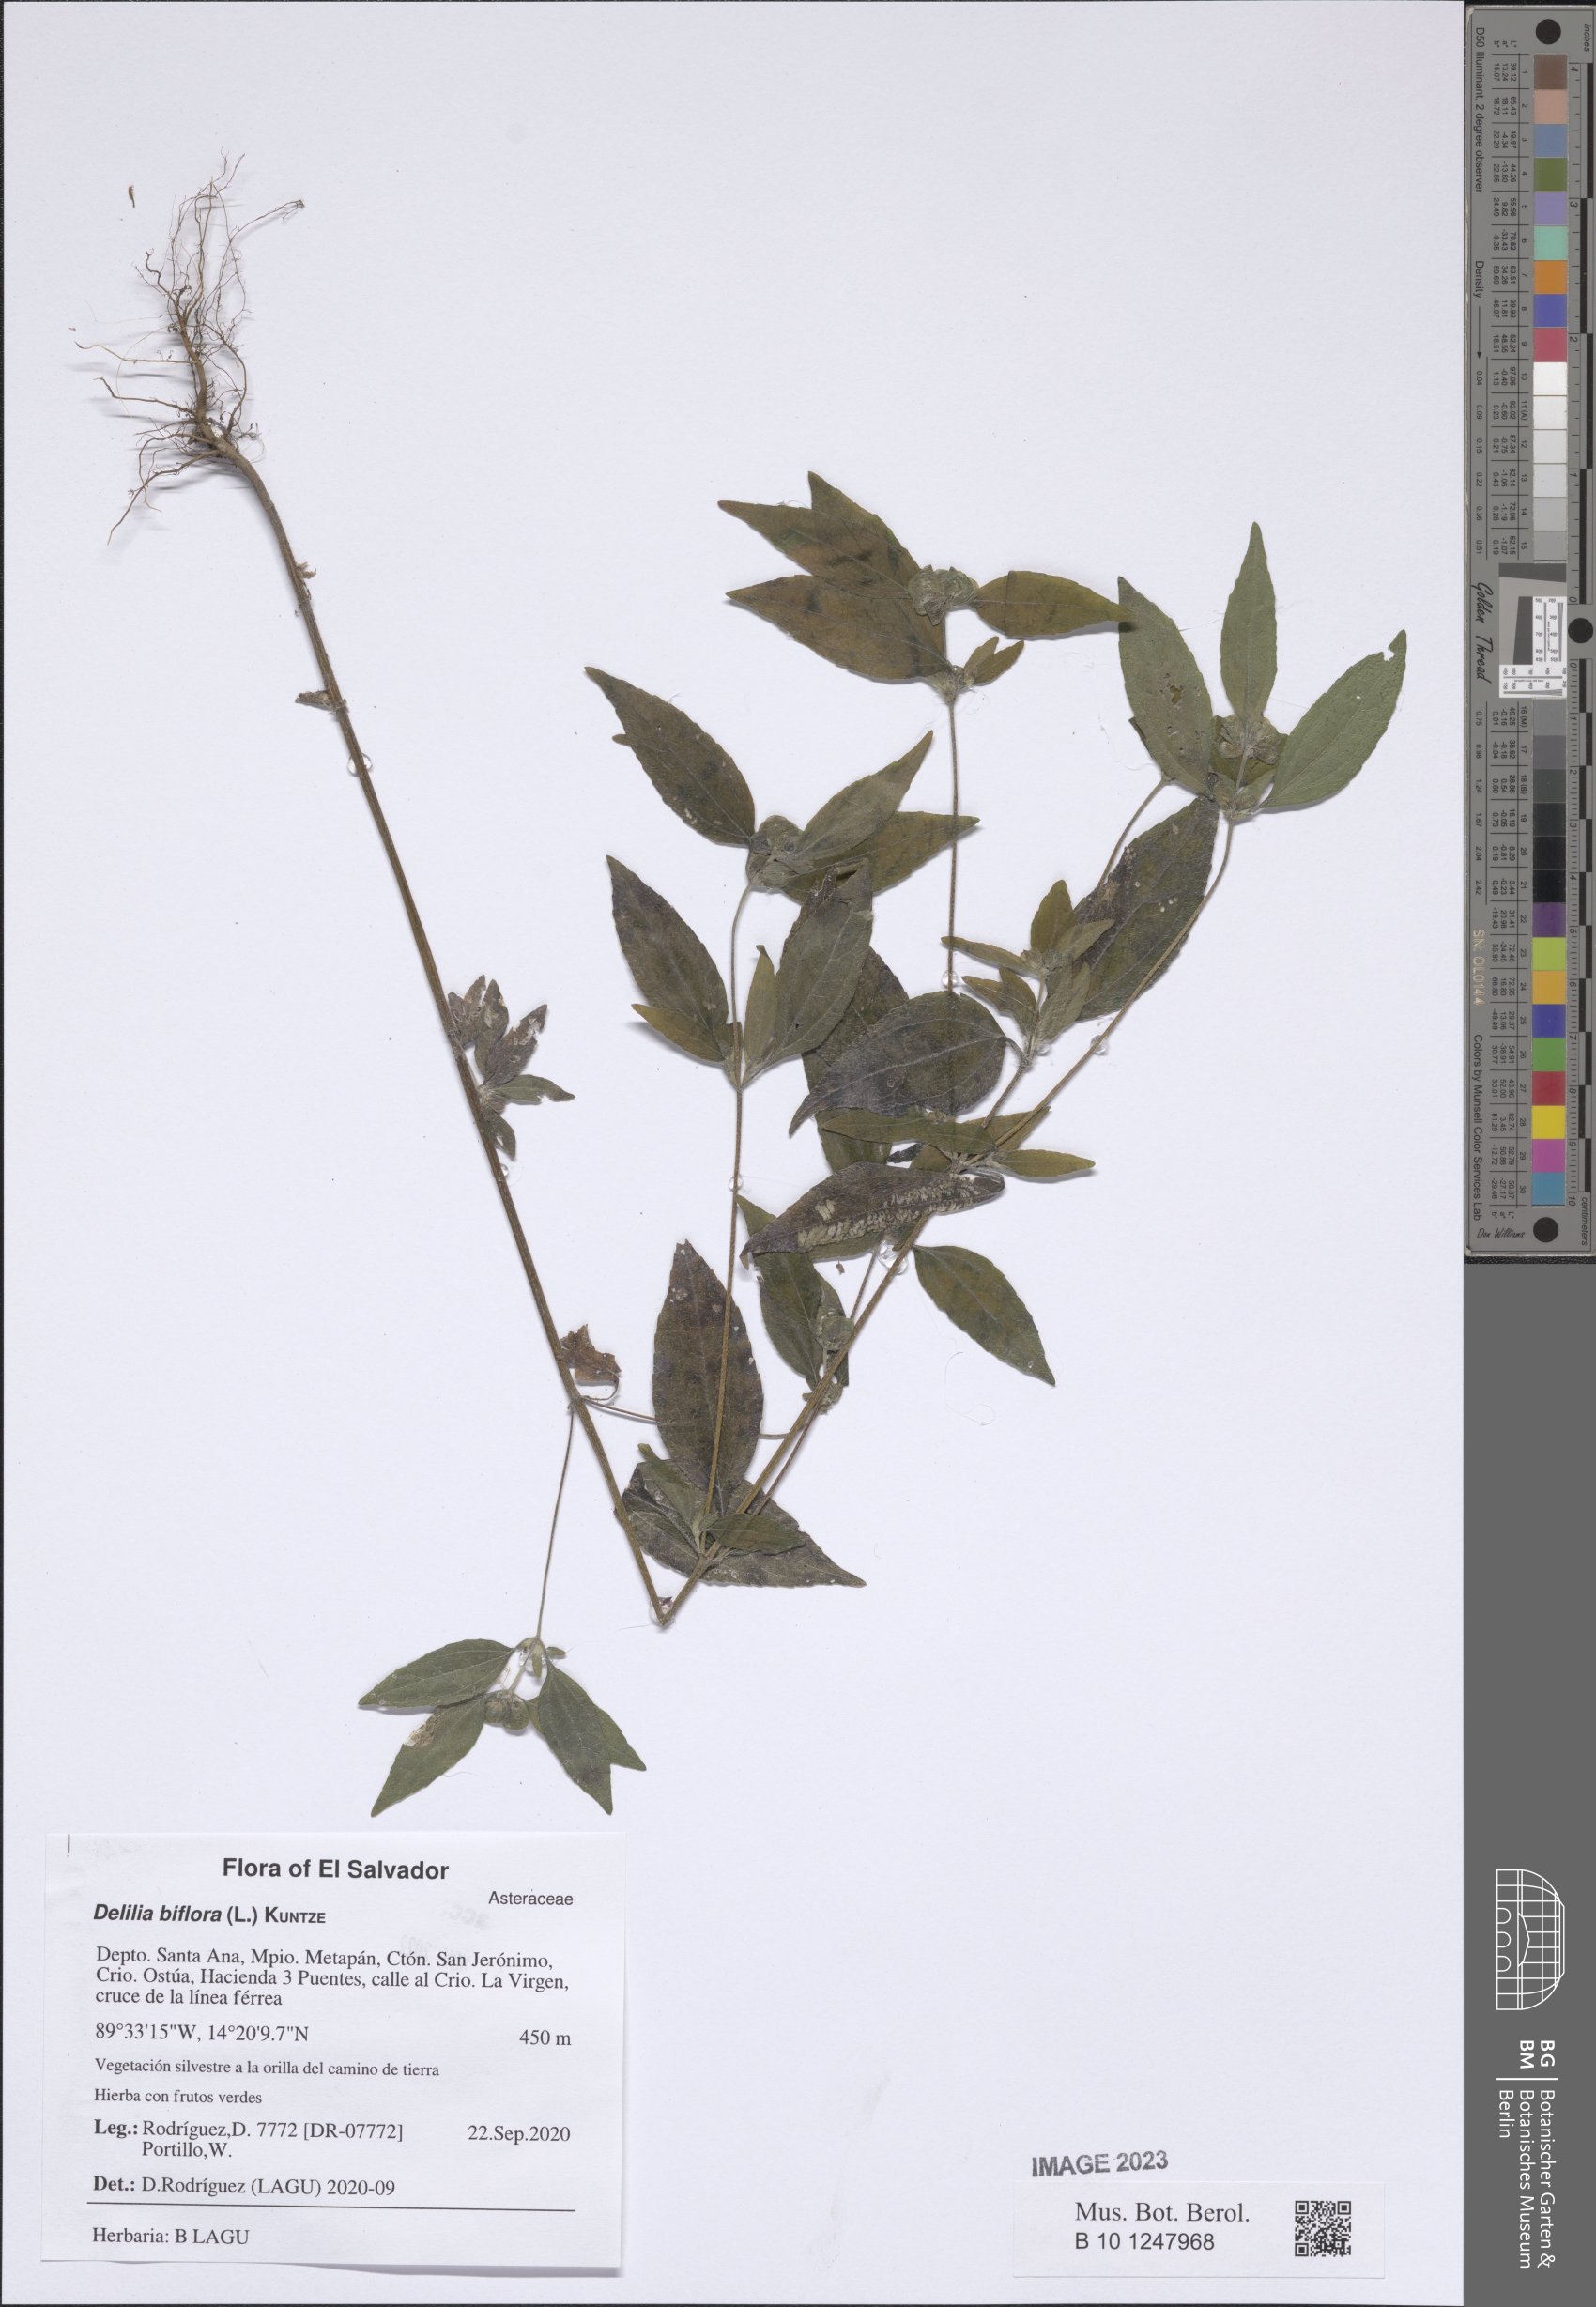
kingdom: Plantae
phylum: Tracheophyta
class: Magnoliopsida
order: Asterales
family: Asteraceae
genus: Delilia
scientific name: Delilia biflora
